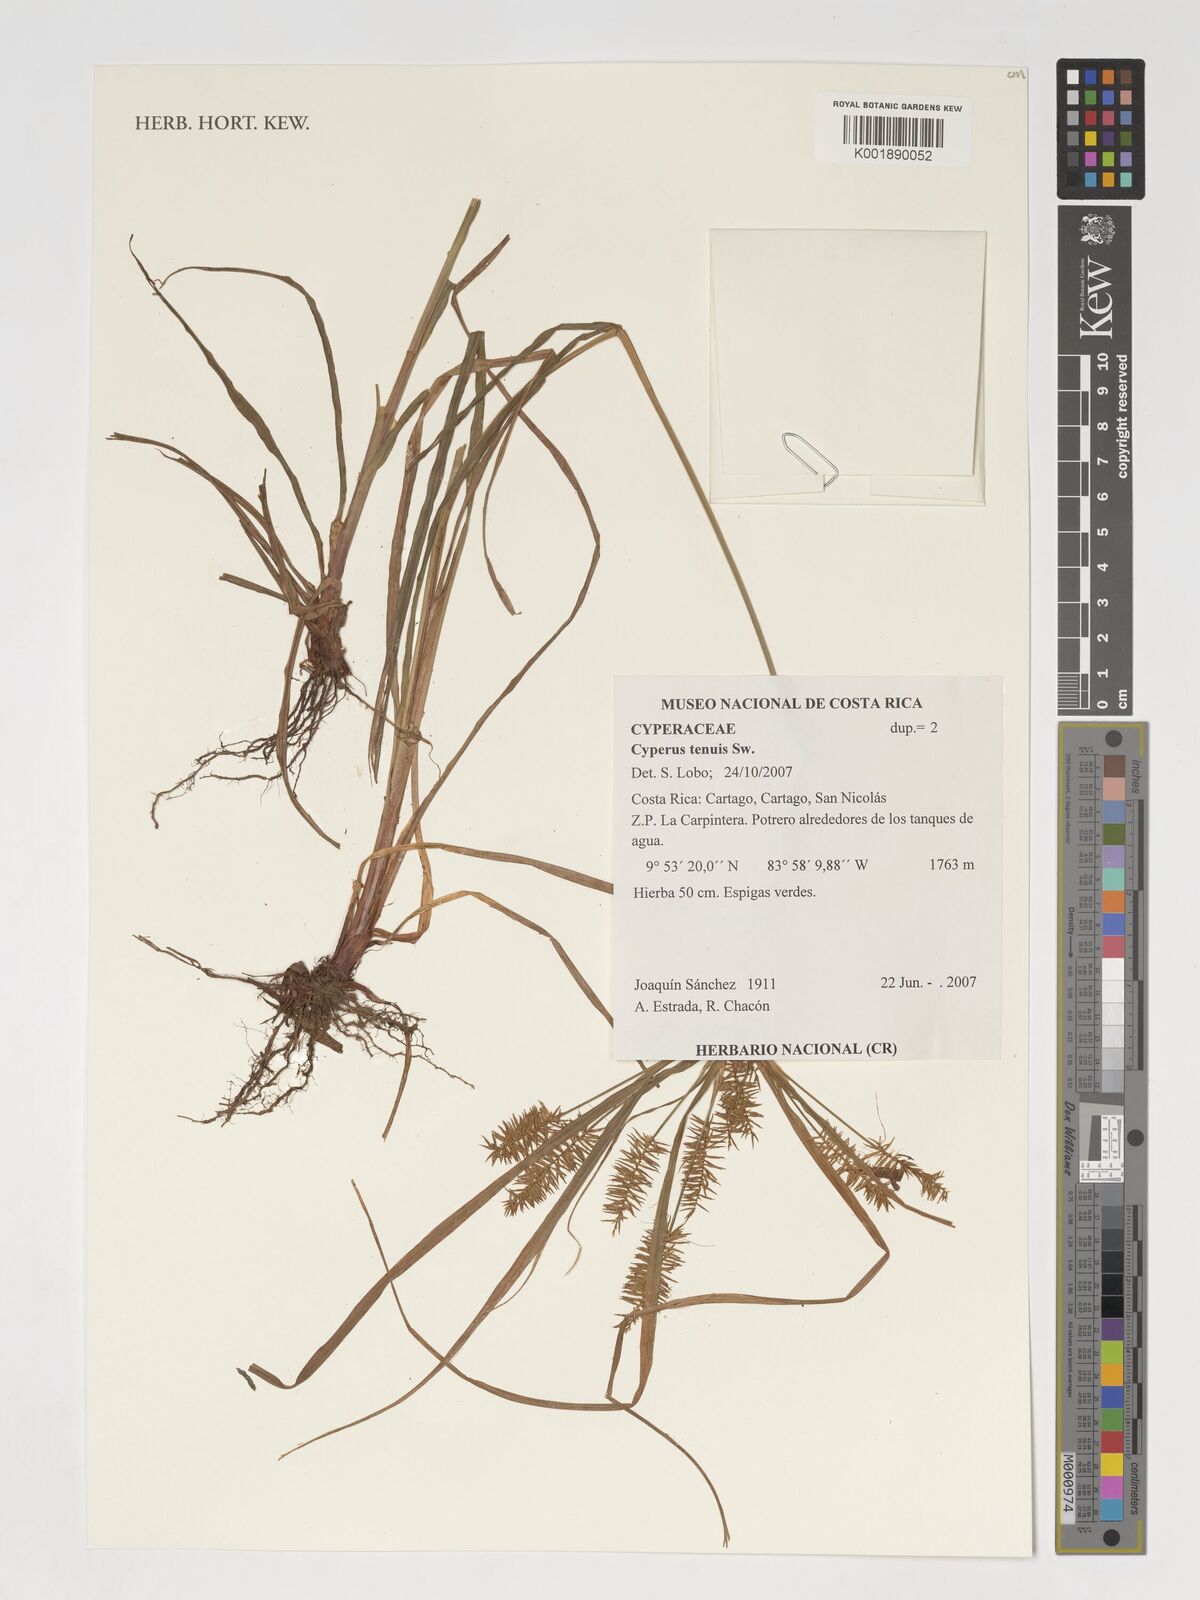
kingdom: Plantae
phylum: Tracheophyta
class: Liliopsida
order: Poales
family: Cyperaceae
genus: Cyperus
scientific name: Cyperus polystachyos
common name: Bunchy flat sedge
